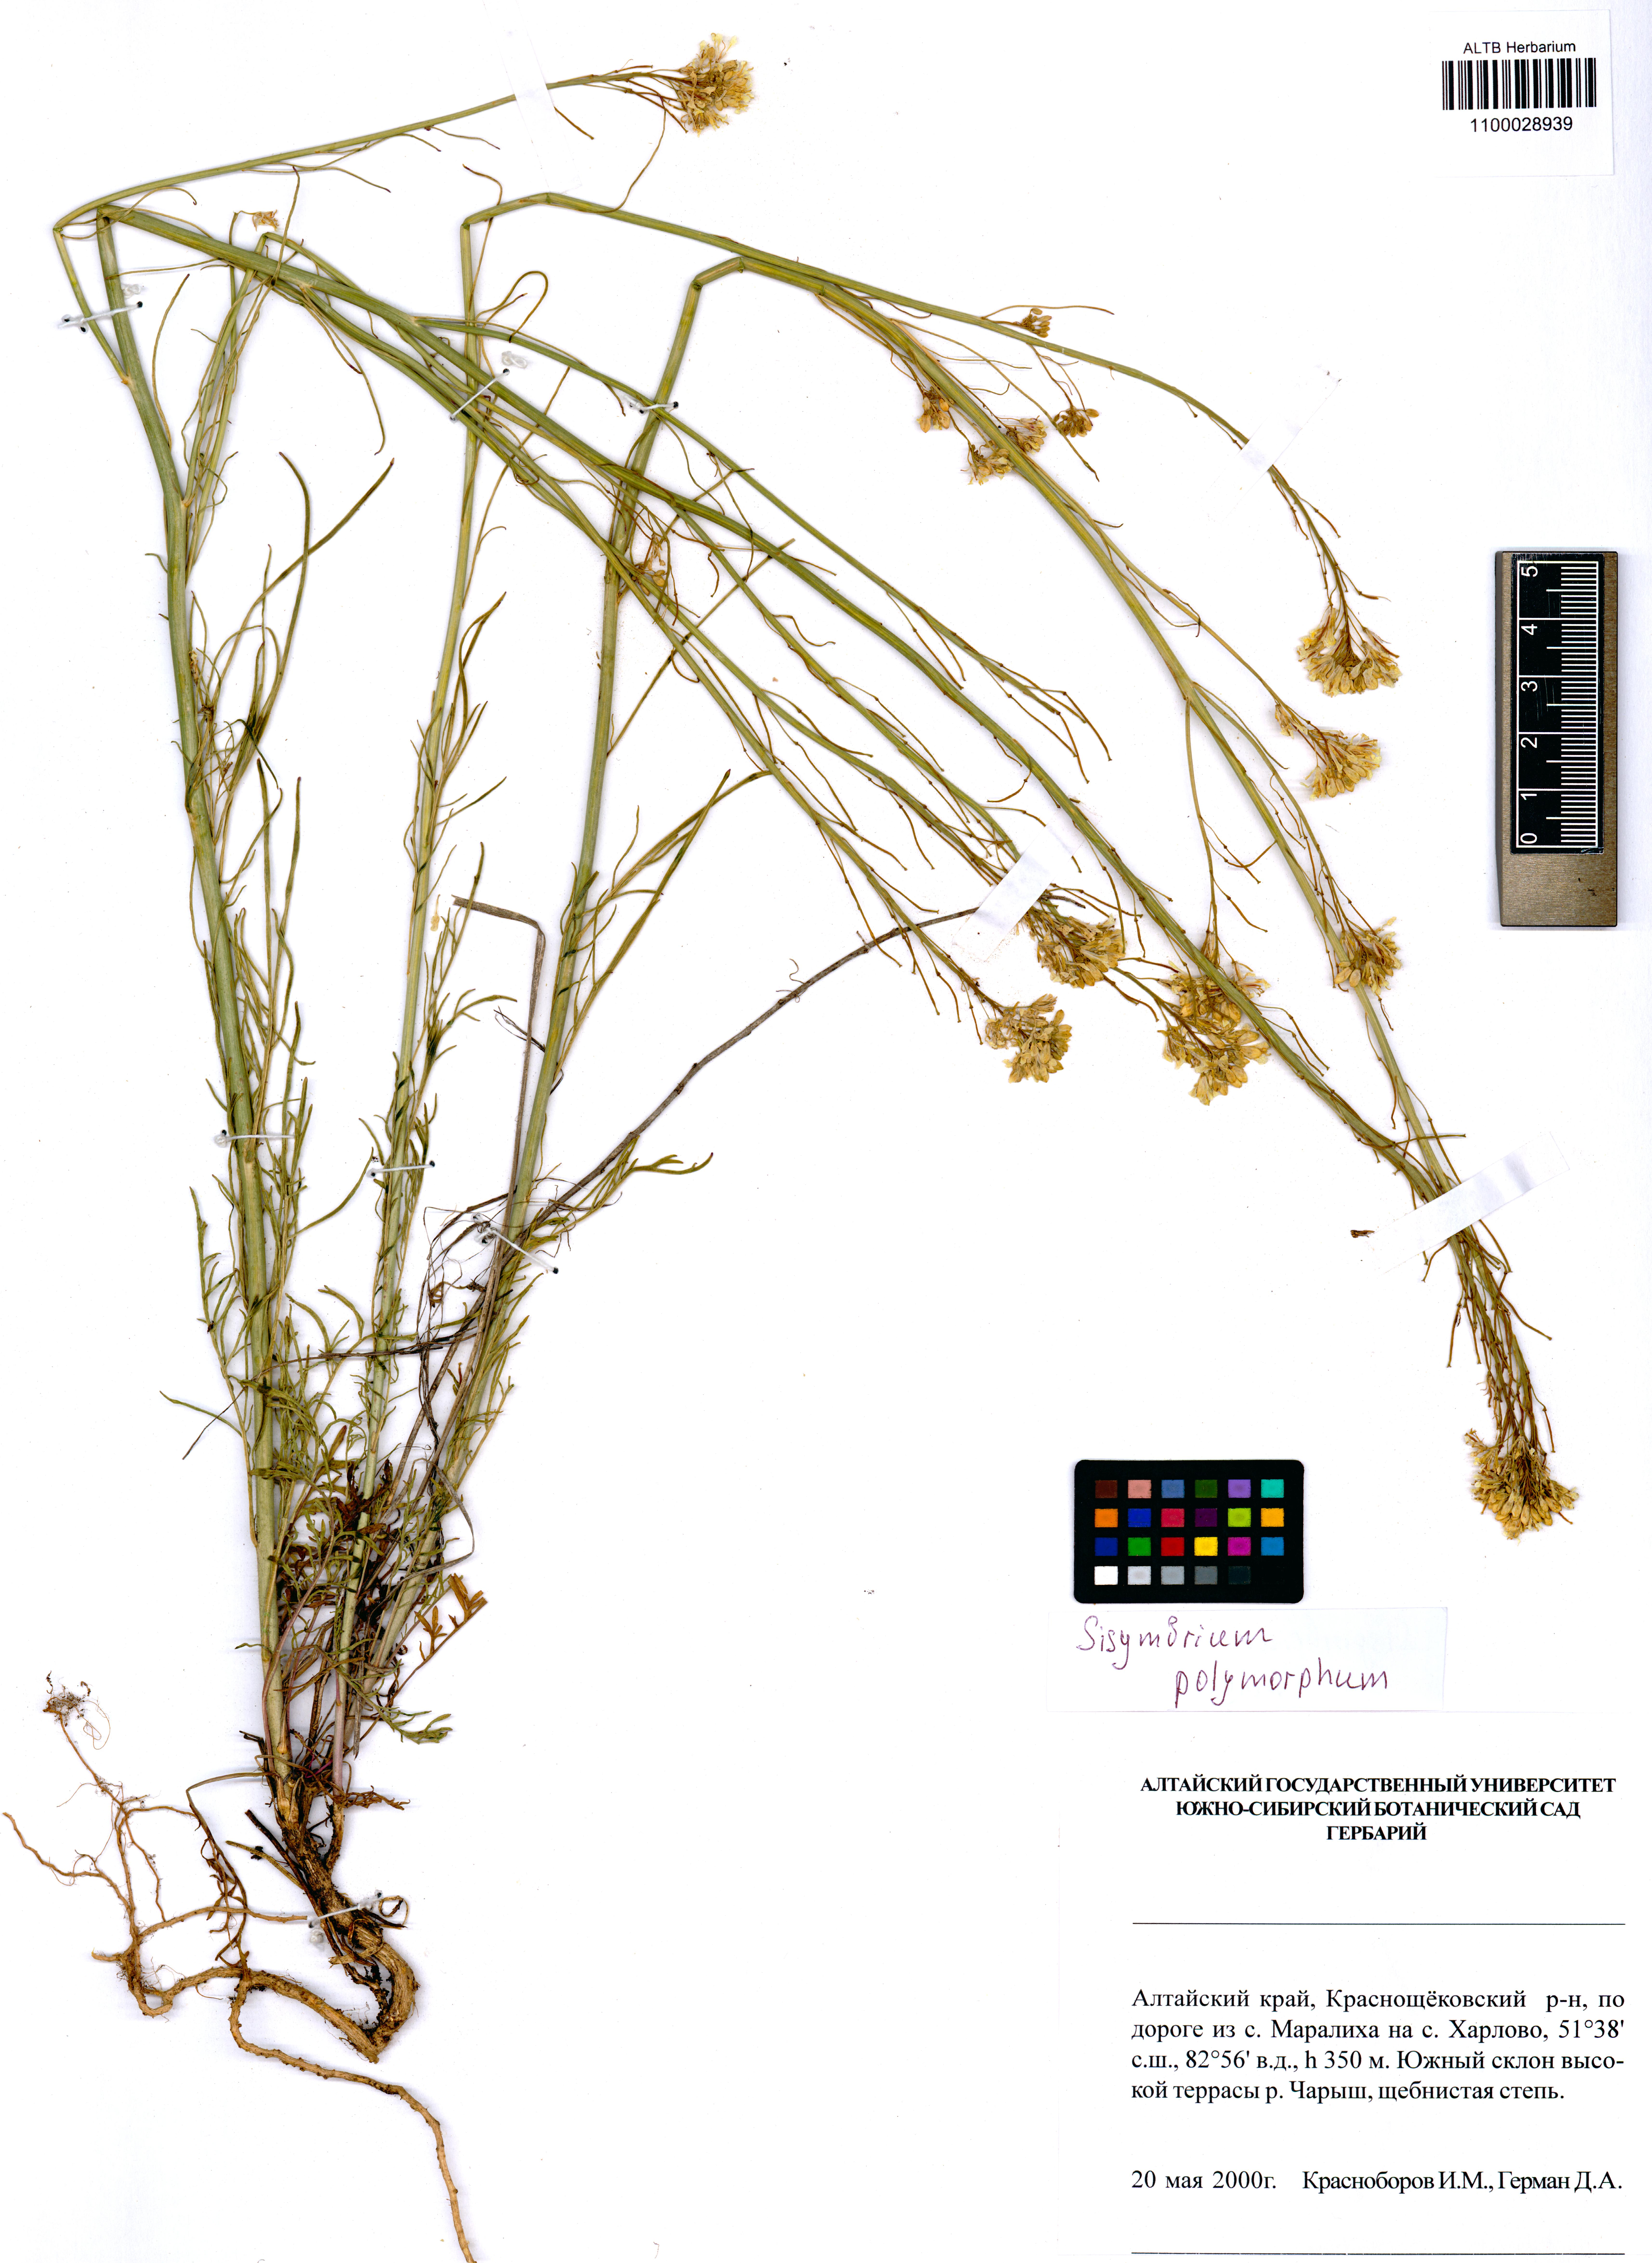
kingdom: Plantae
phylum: Tracheophyta
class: Magnoliopsida
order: Brassicales
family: Brassicaceae
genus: Sisymbrium
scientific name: Sisymbrium polymorphum
